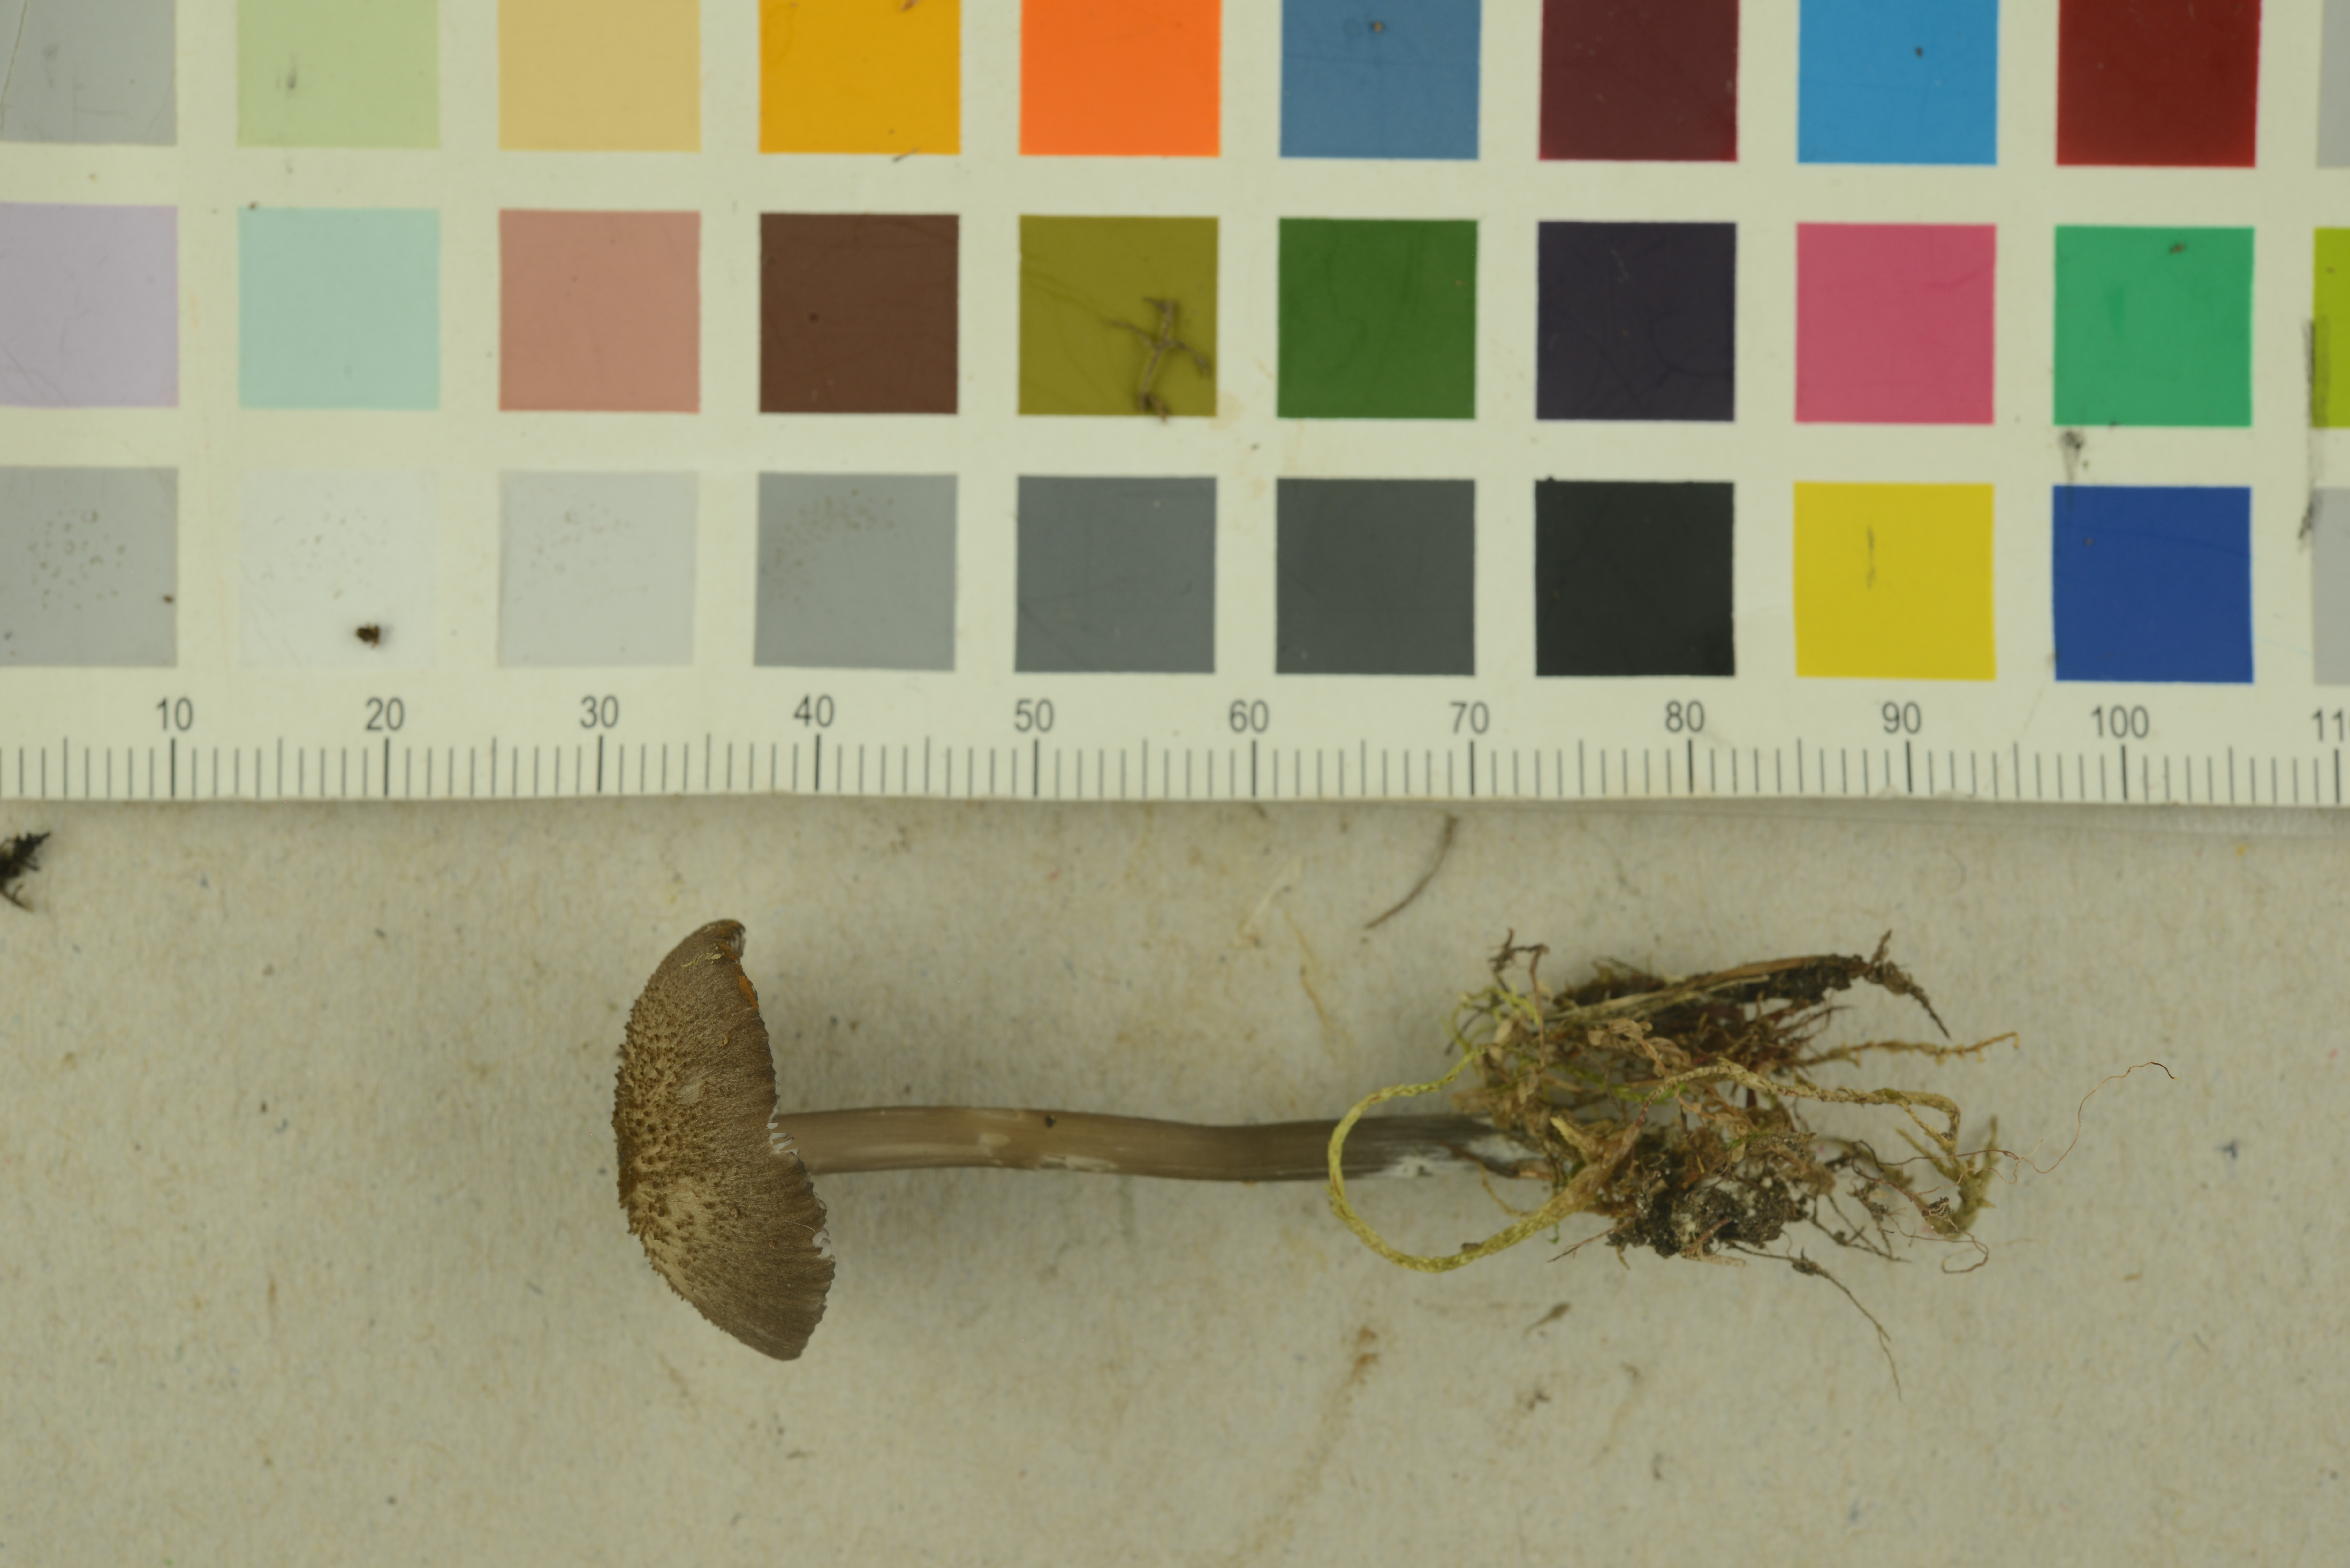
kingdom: Fungi
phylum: Basidiomycota
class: Agaricomycetes
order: Agaricales
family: Entolomataceae
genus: Entoloma
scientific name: Entoloma carneogriseum
